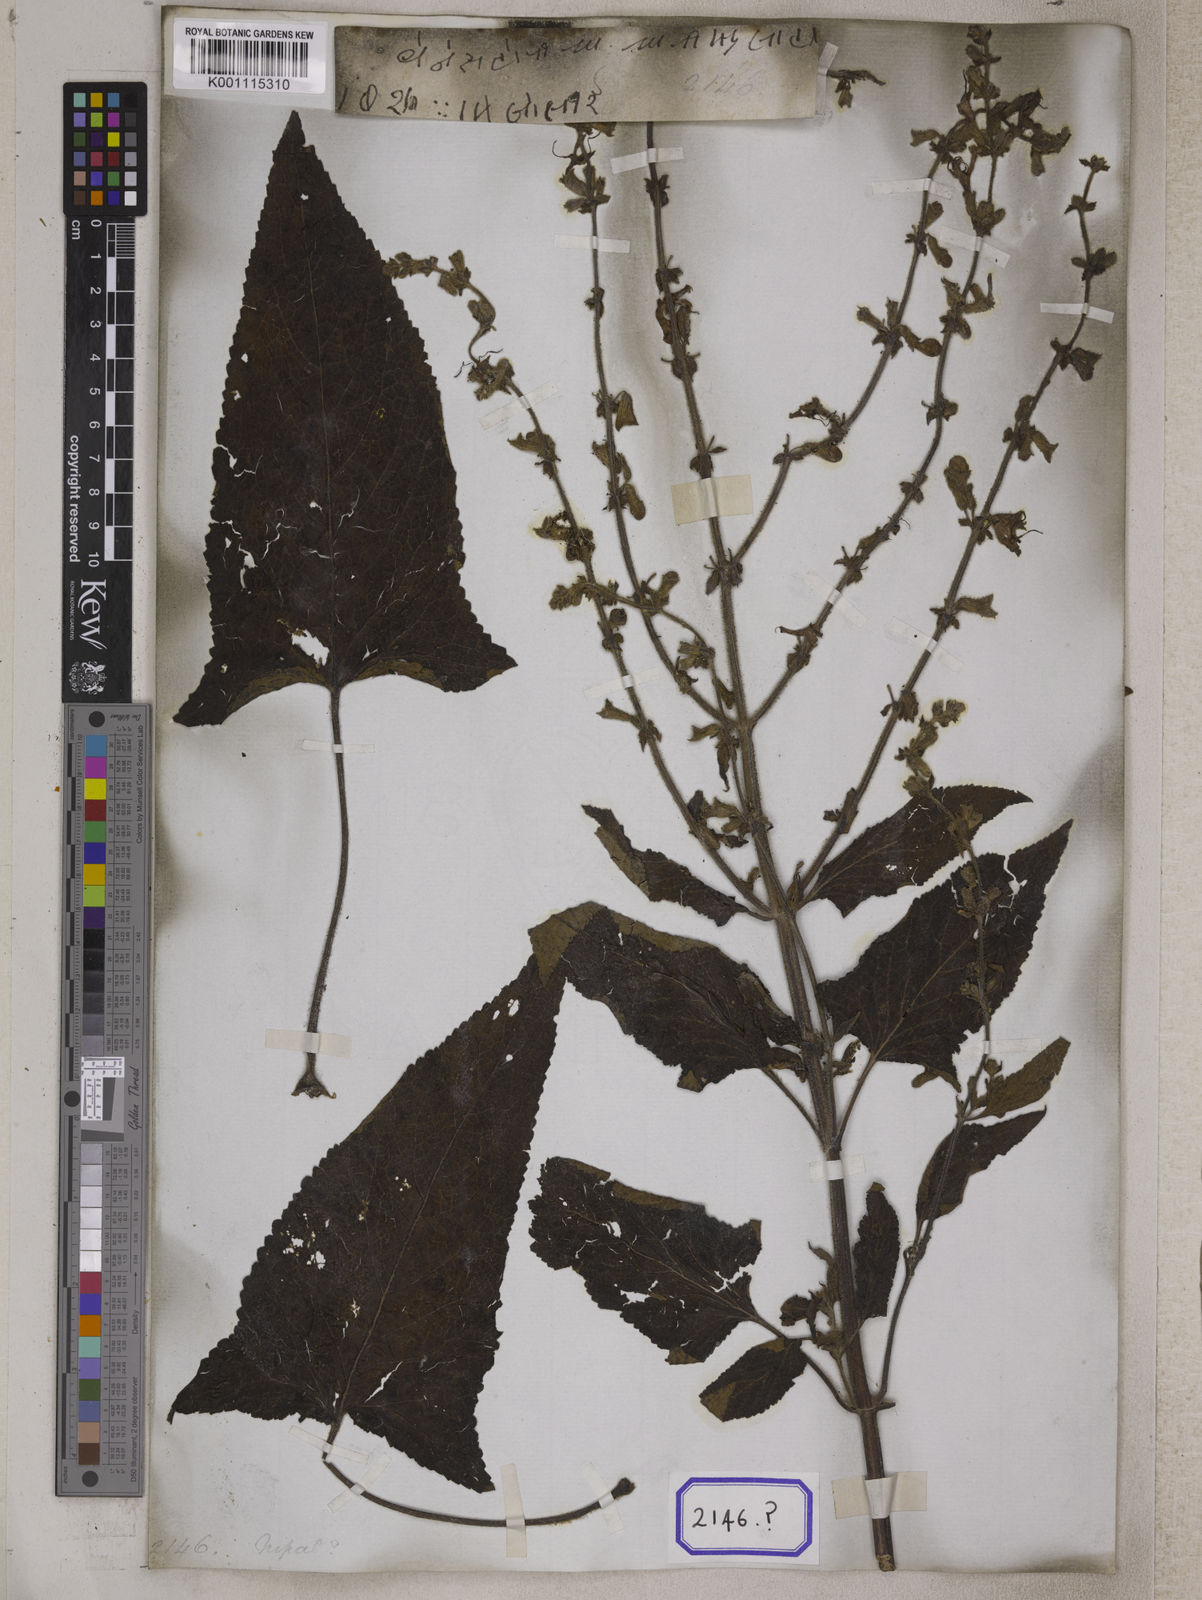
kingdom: Plantae
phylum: Tracheophyta
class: Magnoliopsida
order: Lamiales
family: Lamiaceae
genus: Salvia
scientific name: Salvia
